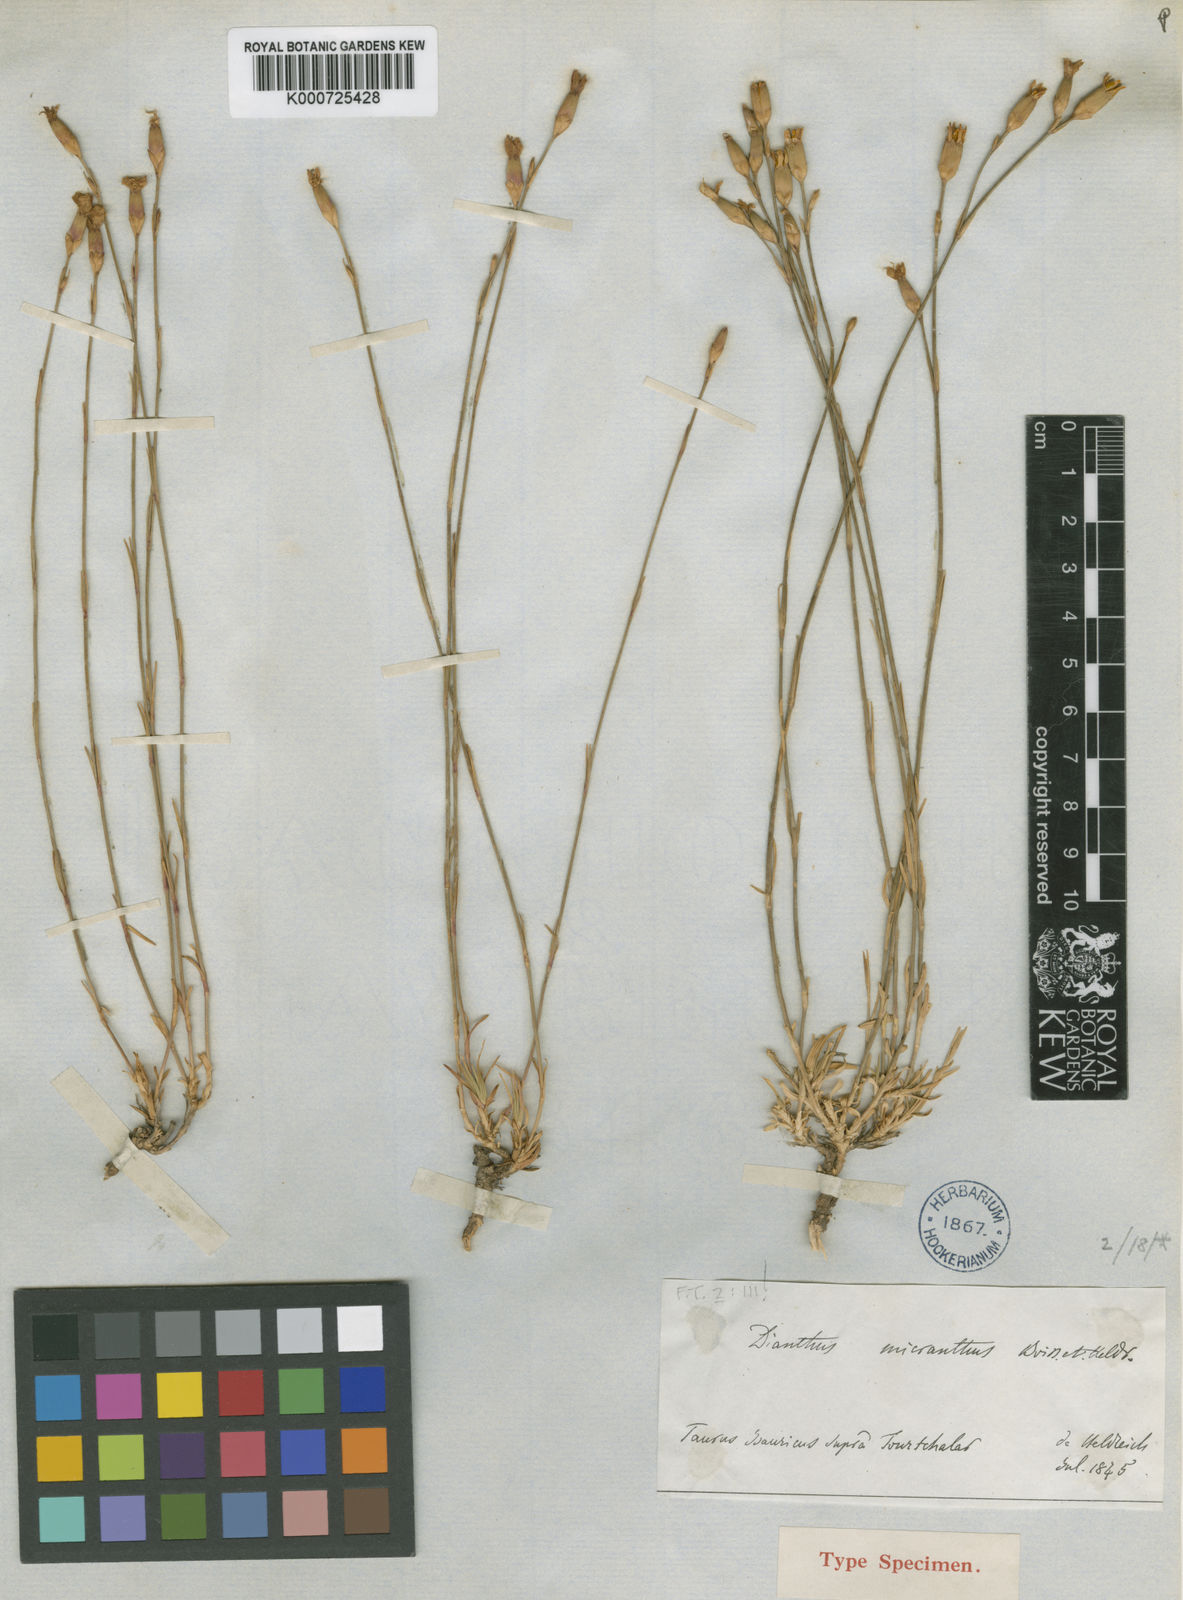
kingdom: Plantae
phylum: Tracheophyta
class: Magnoliopsida
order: Caryophyllales
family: Caryophyllaceae
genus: Dianthus
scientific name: Dianthus micranthus
